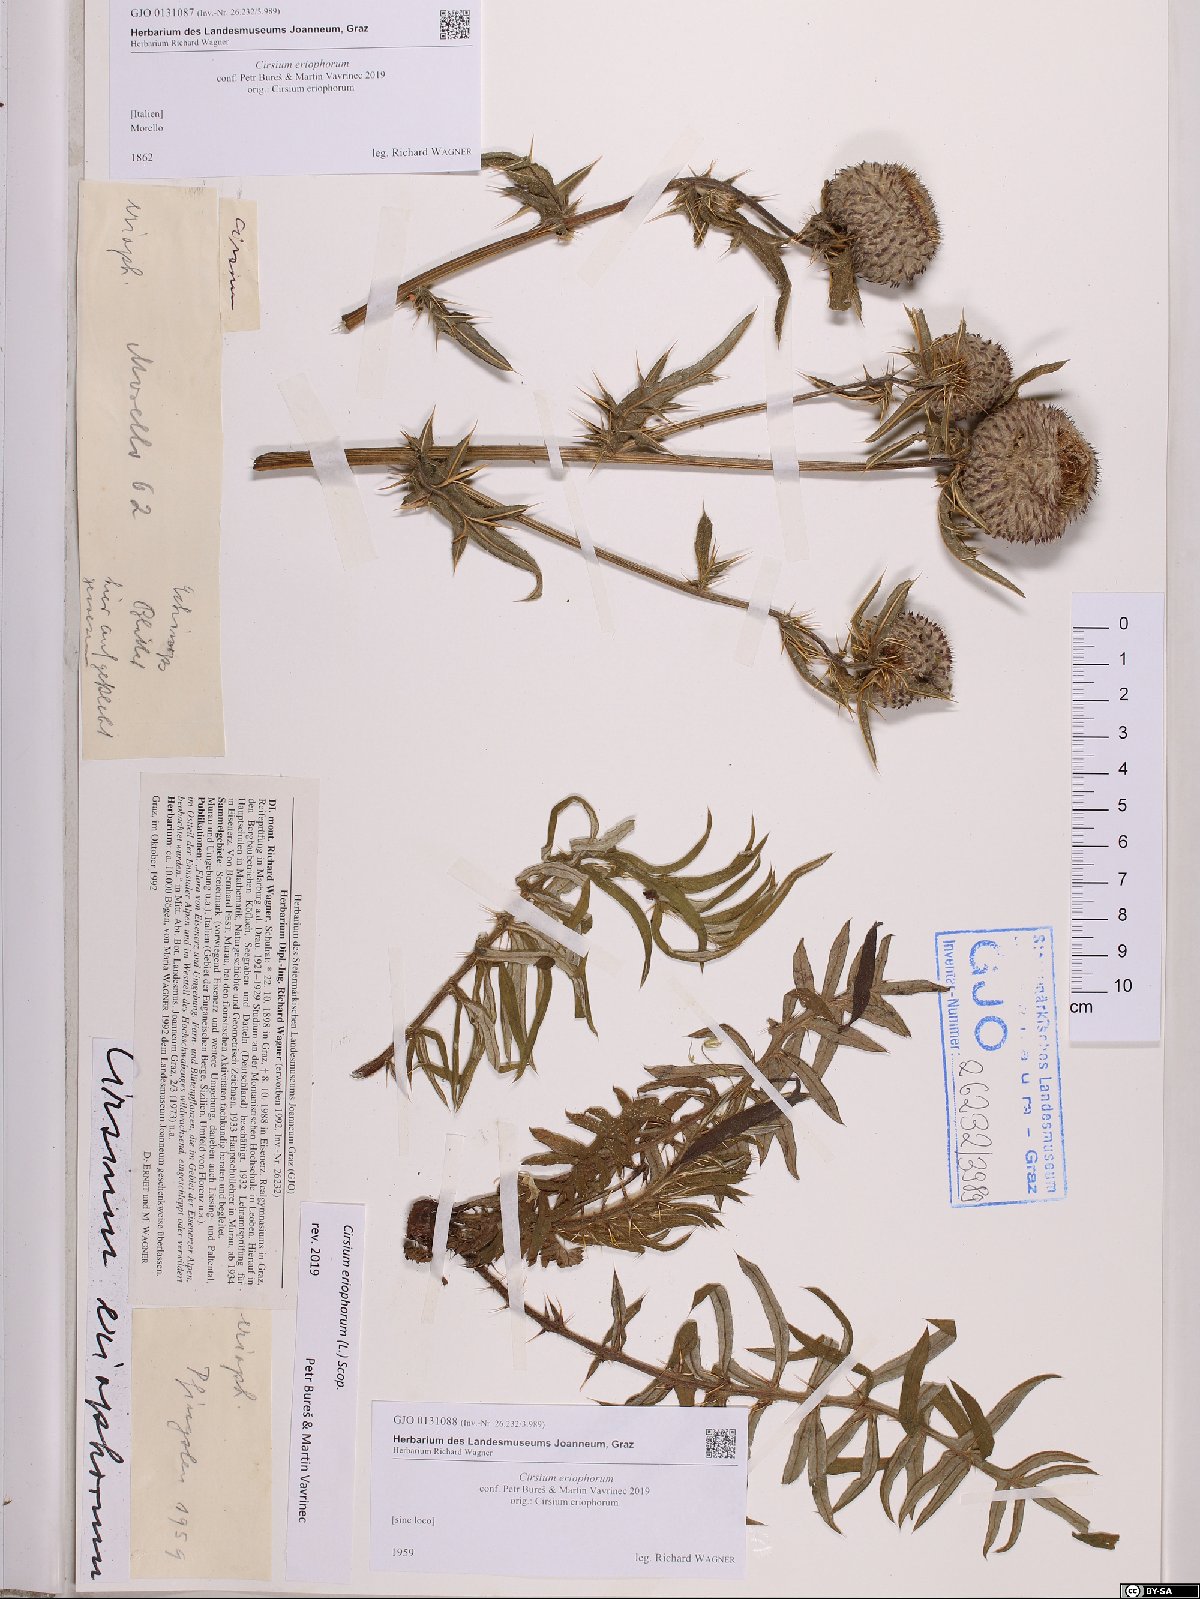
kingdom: Plantae
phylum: Tracheophyta
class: Magnoliopsida
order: Asterales
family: Asteraceae
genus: Lophiolepis
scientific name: Lophiolepis eriophora
